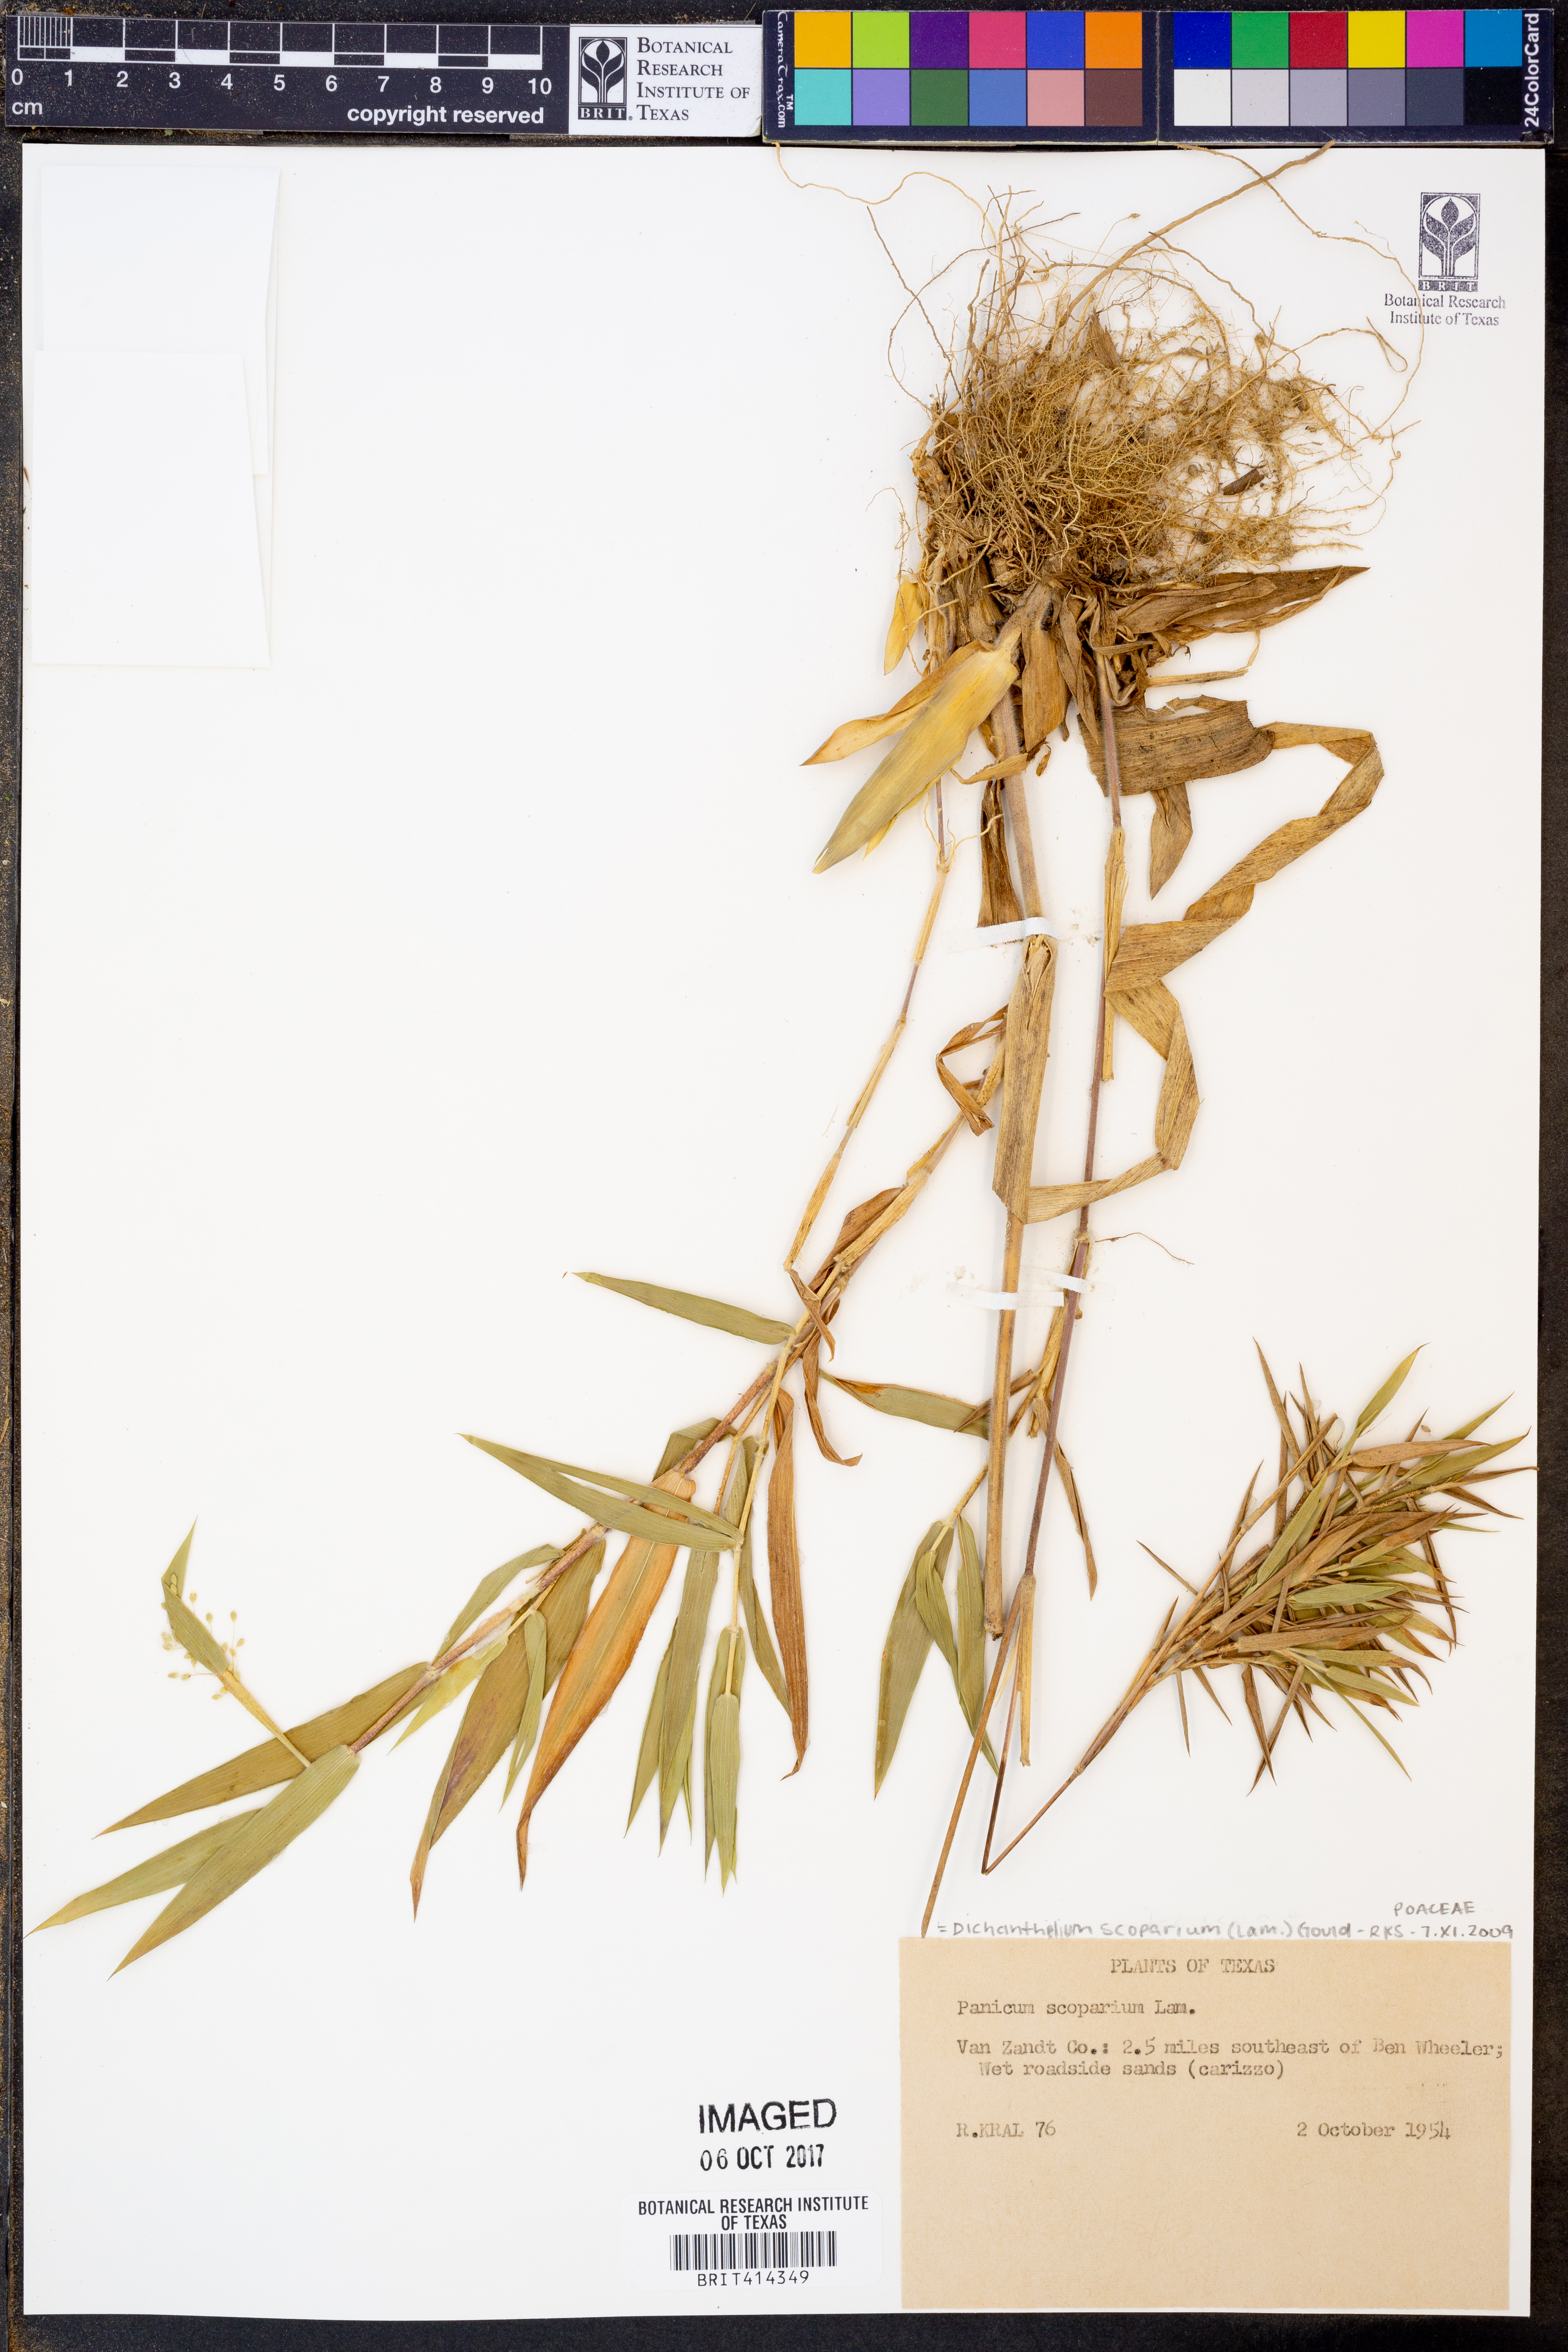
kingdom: Plantae
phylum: Tracheophyta
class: Liliopsida
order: Poales
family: Poaceae
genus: Dichanthelium
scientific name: Dichanthelium scoparium
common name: Velvety panic grass
